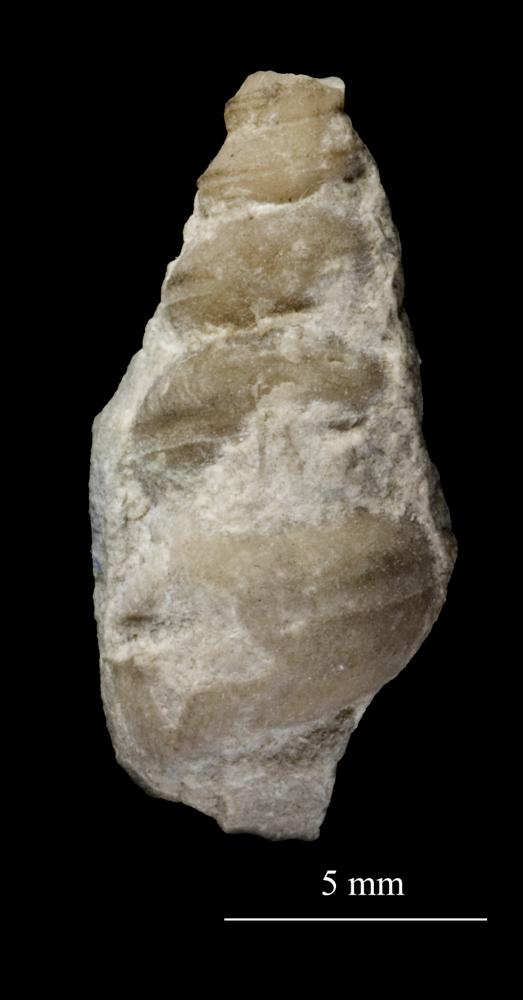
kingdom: Animalia
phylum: Mollusca
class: Gastropoda
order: Pleurotomariida
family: Murchisoniidae
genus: Pleurotoma
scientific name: Pleurotoma coralli
